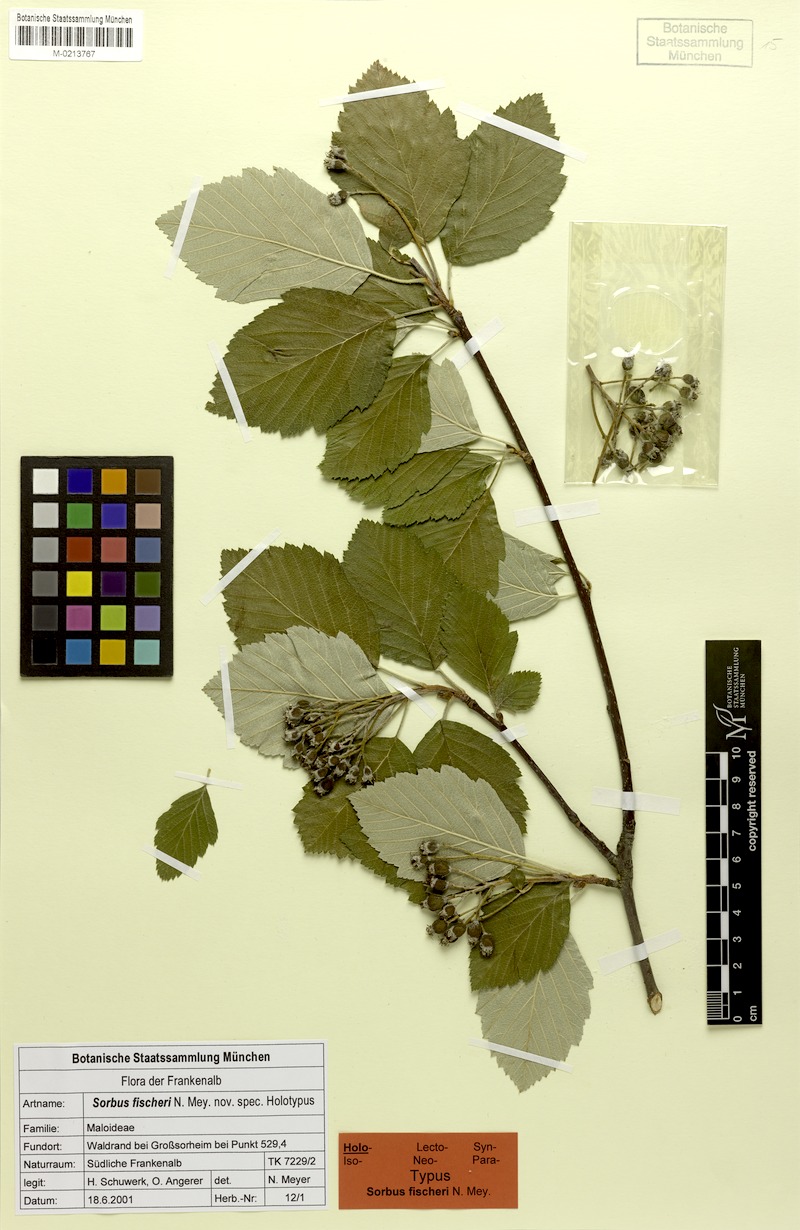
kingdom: Plantae
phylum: Tracheophyta
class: Magnoliopsida
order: Rosales
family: Rosaceae
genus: Karpatiosorbus
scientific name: Karpatiosorbus fischeri
